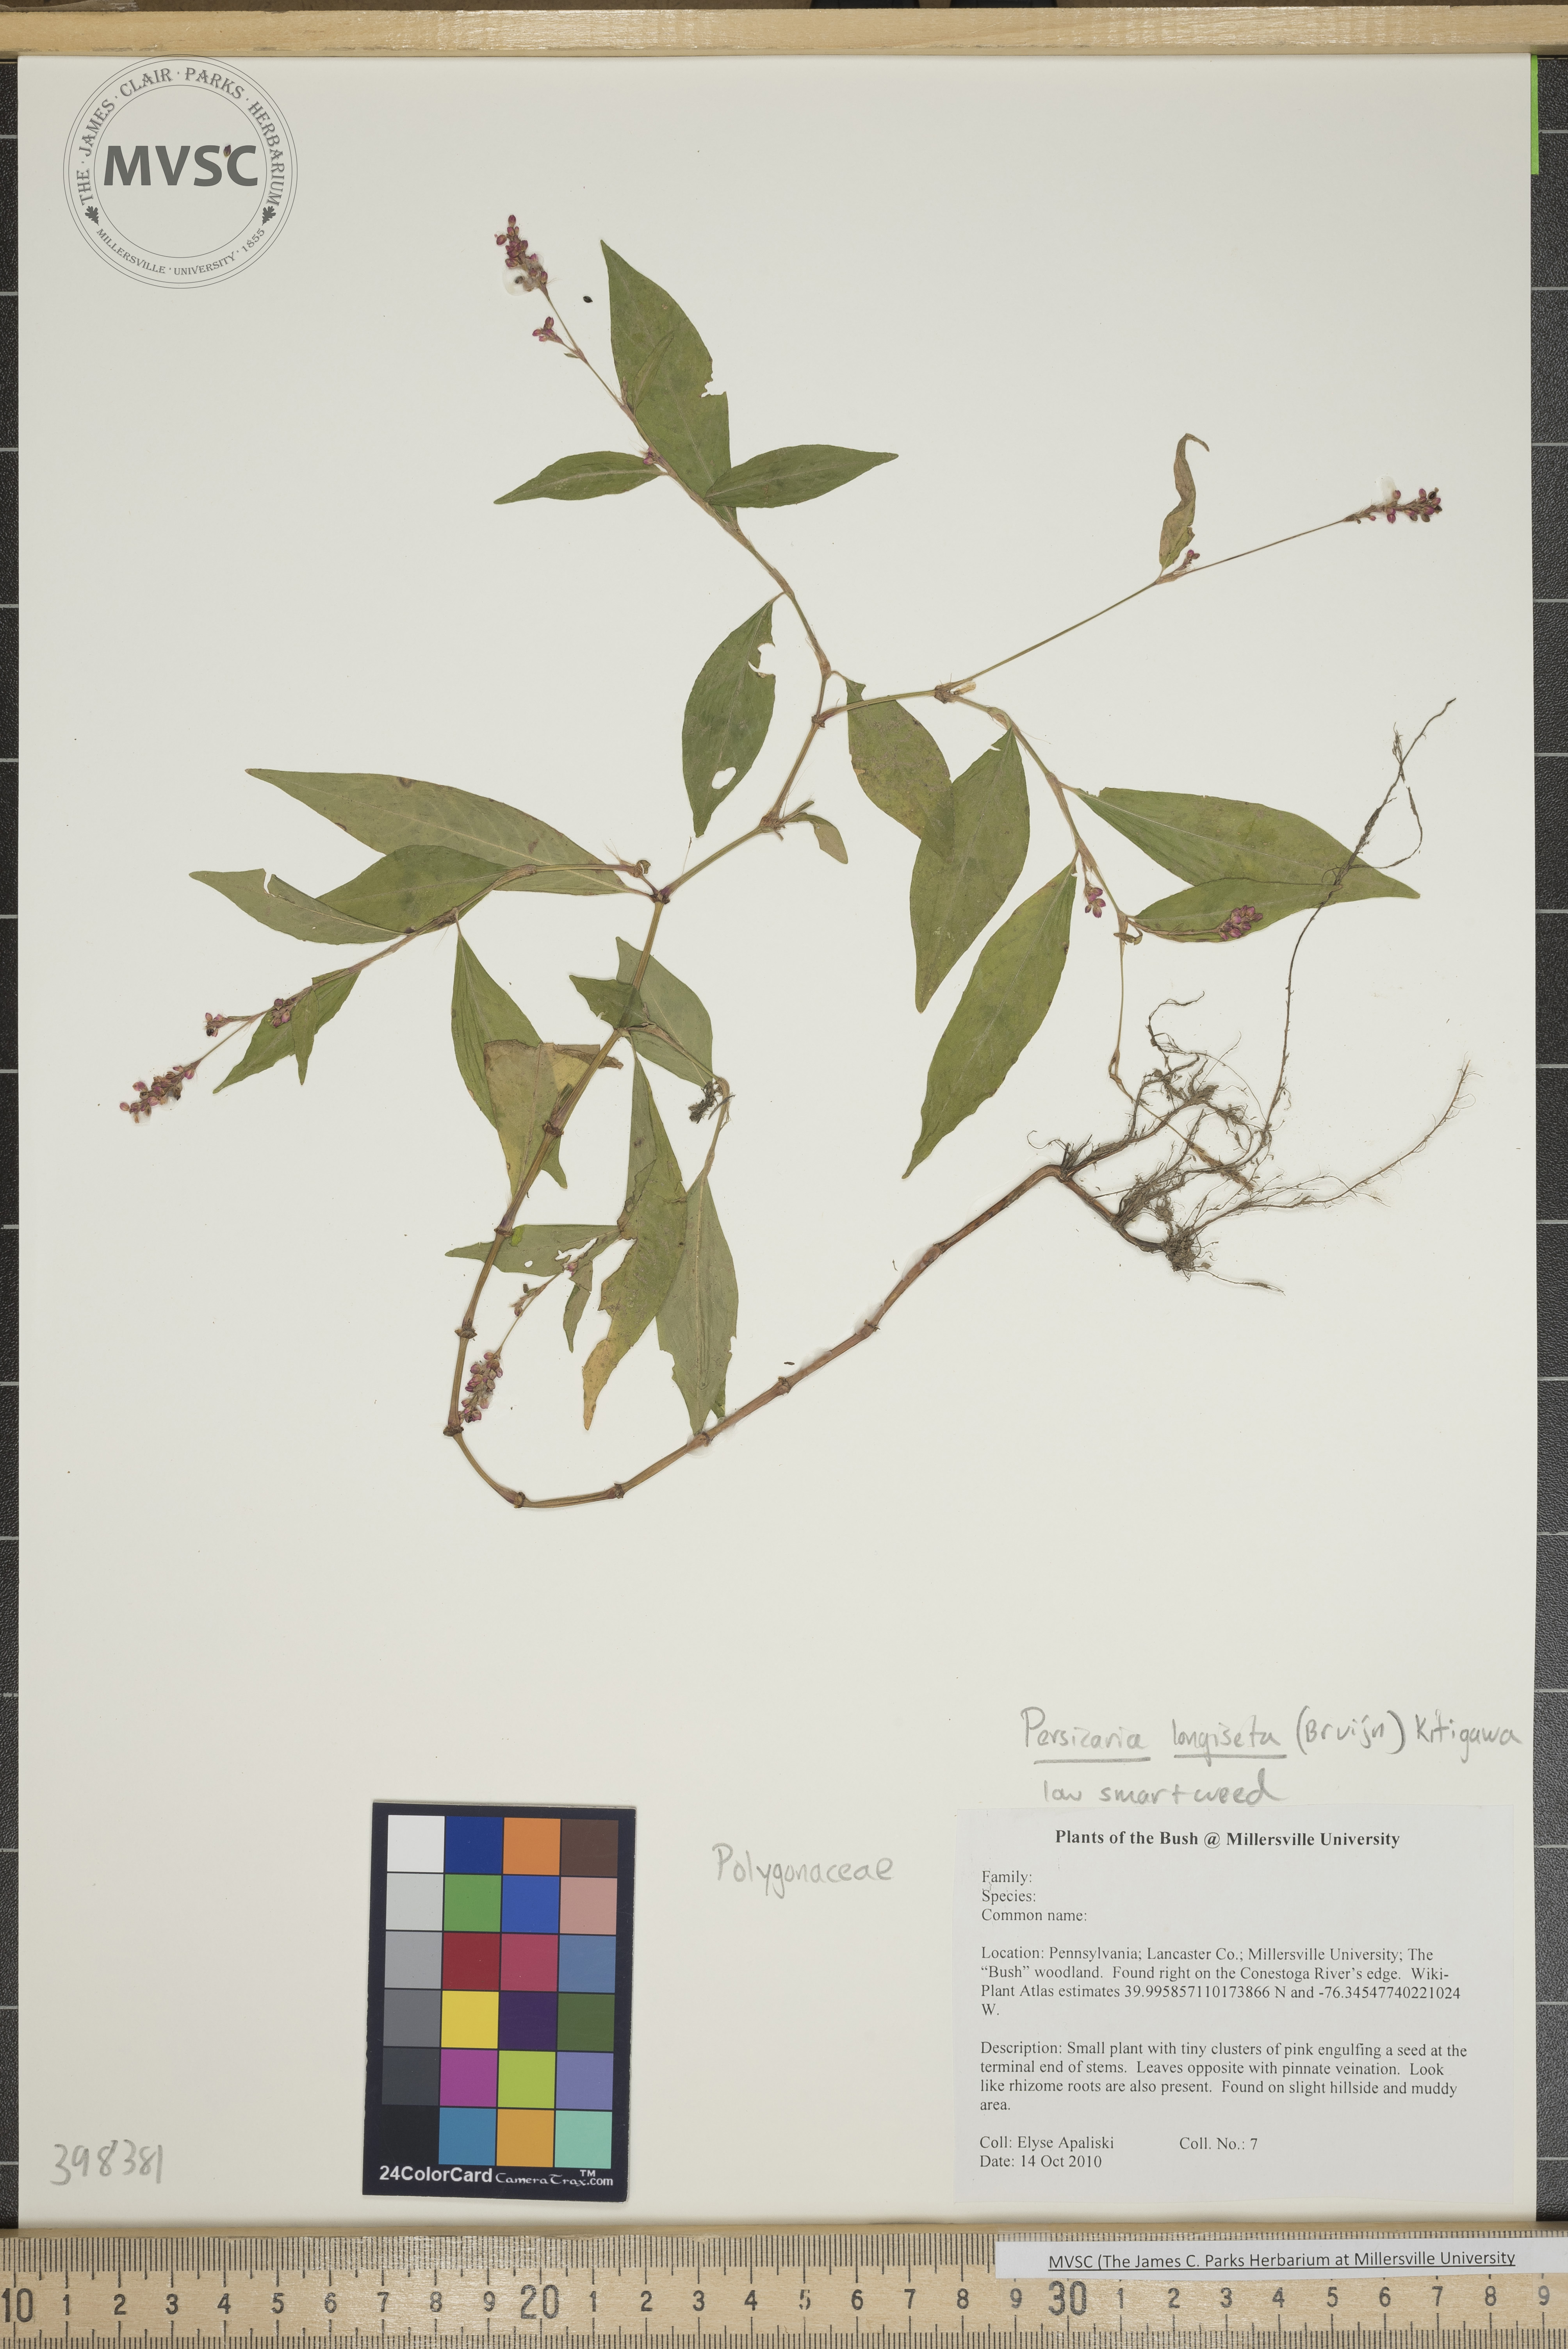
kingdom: Plantae
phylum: Tracheophyta
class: Magnoliopsida
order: Caryophyllales
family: Polygonaceae
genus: Persicaria
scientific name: Persicaria longiseta
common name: Low smartweed
